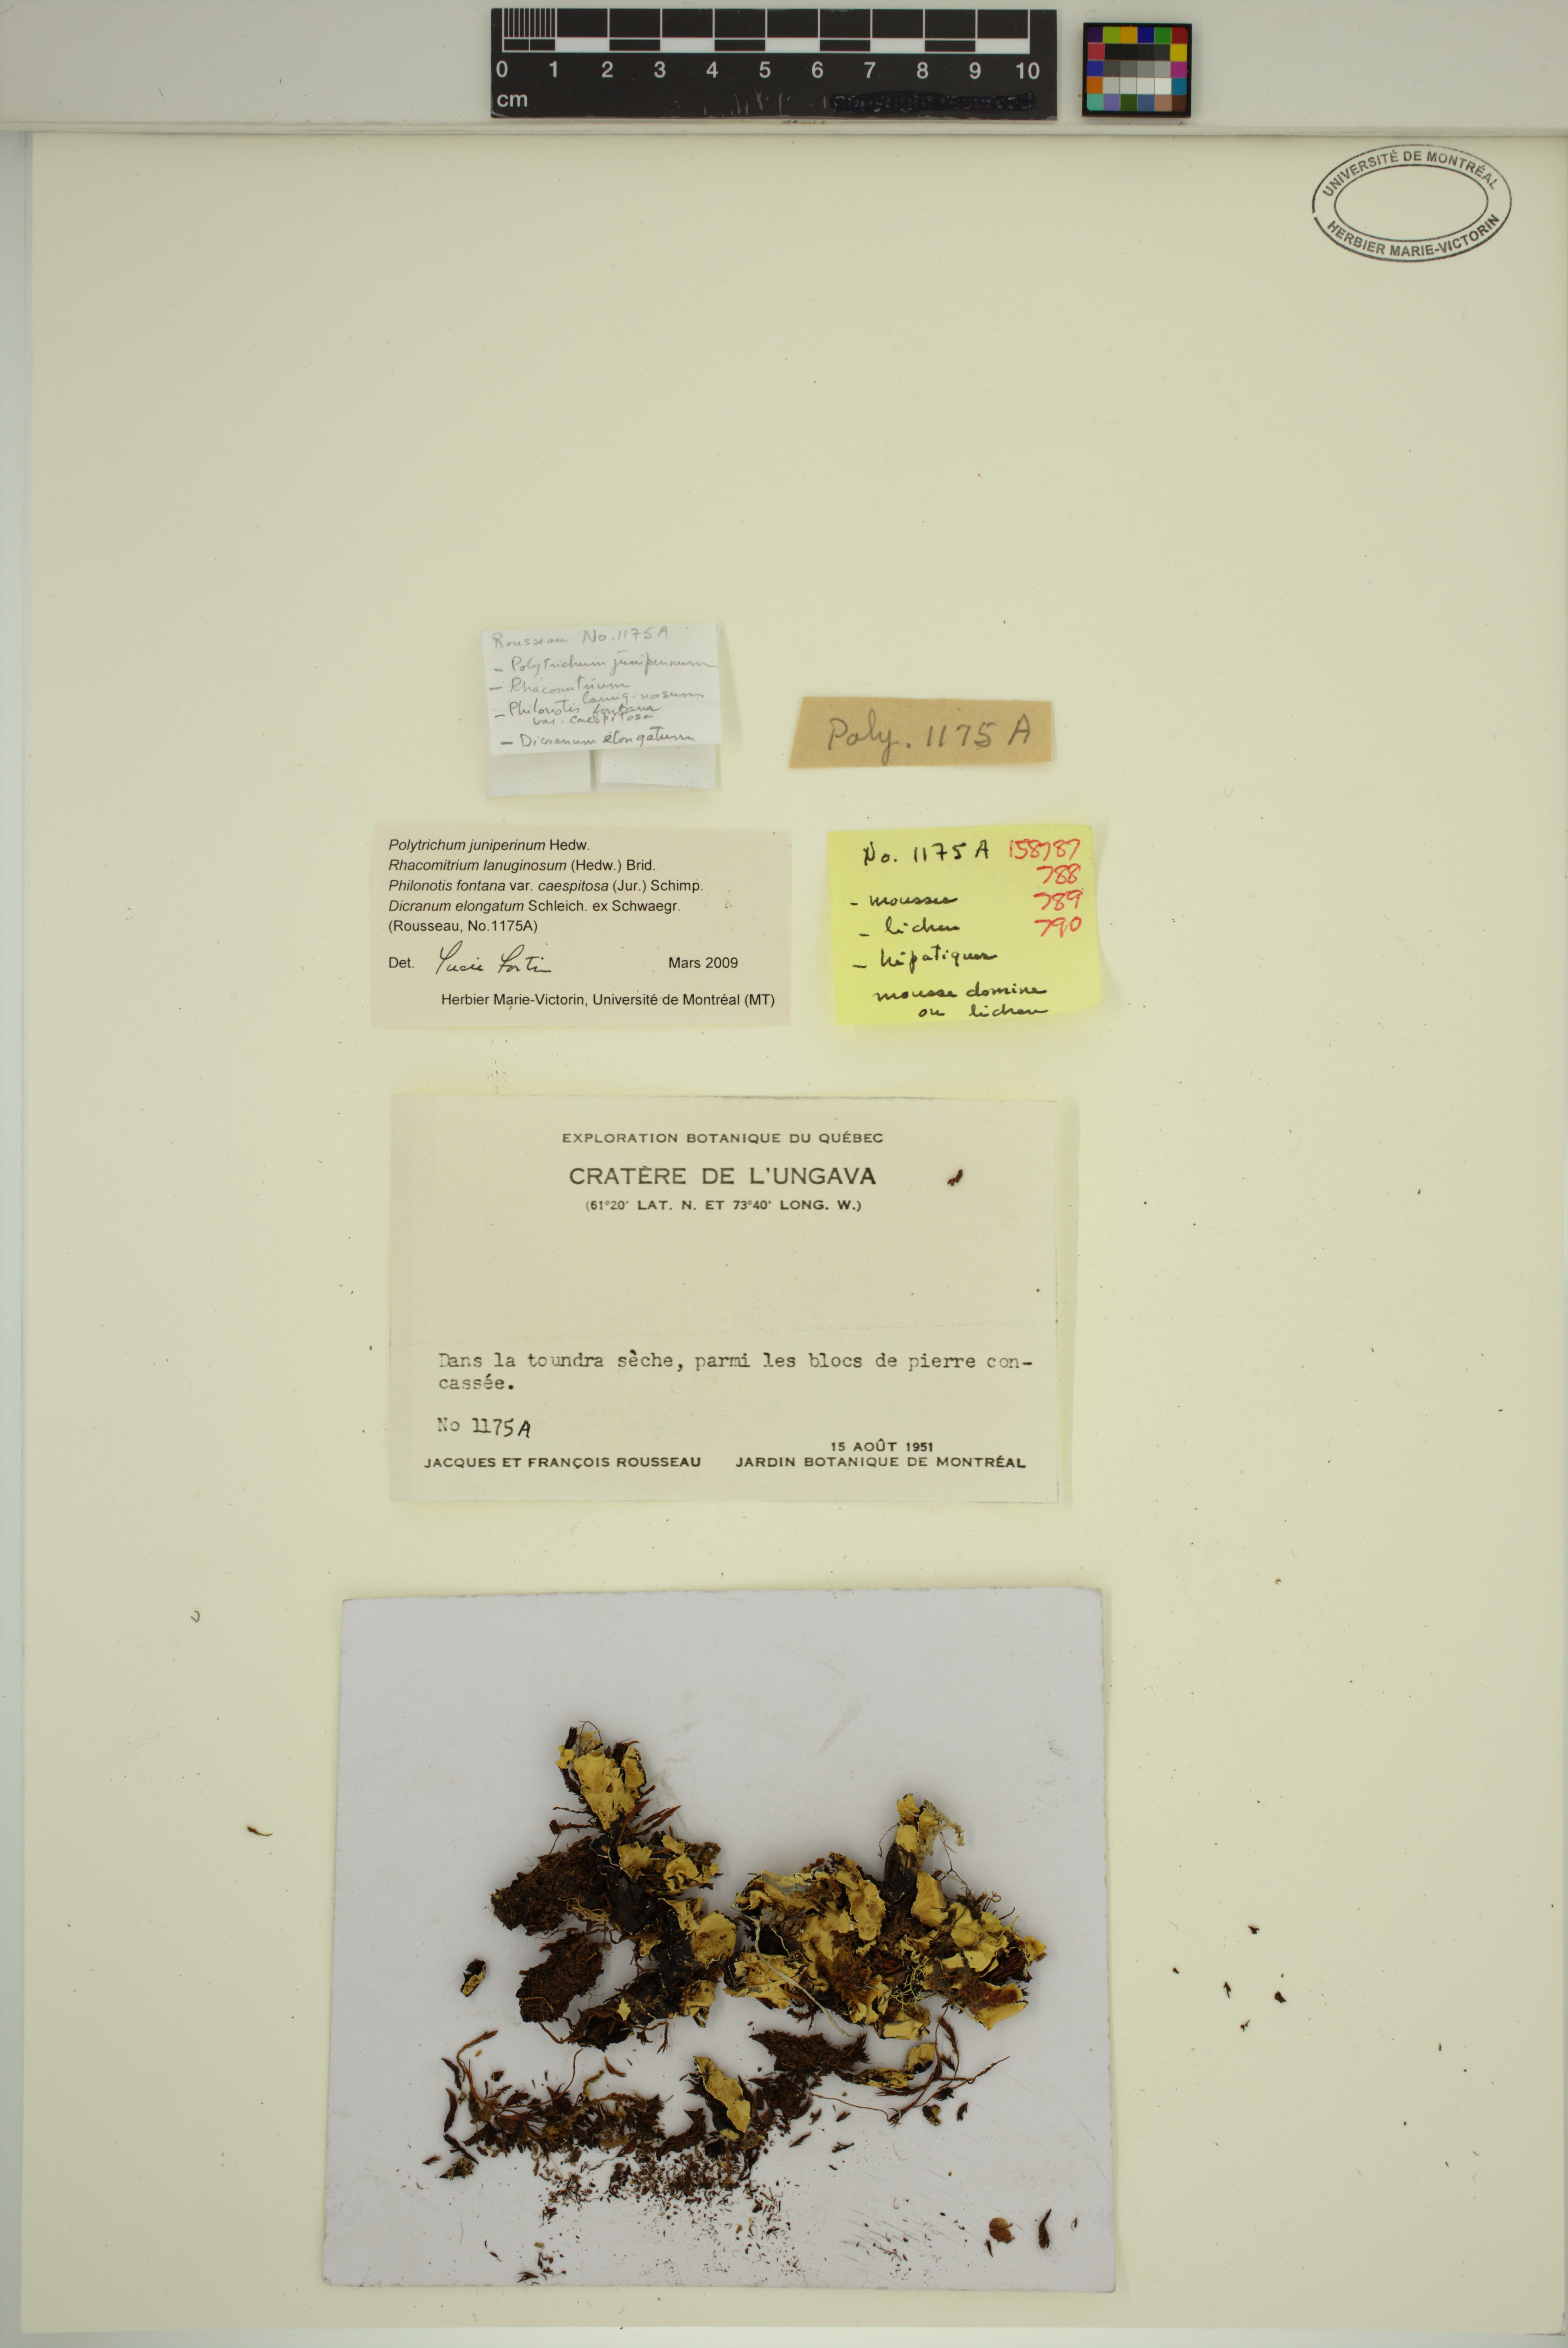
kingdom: Plantae
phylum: Bryophyta
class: Bryopsida
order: Bartramiales
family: Bartramiaceae
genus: Philonotis
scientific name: Philonotis caespitosa
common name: Tufted apple-moss
